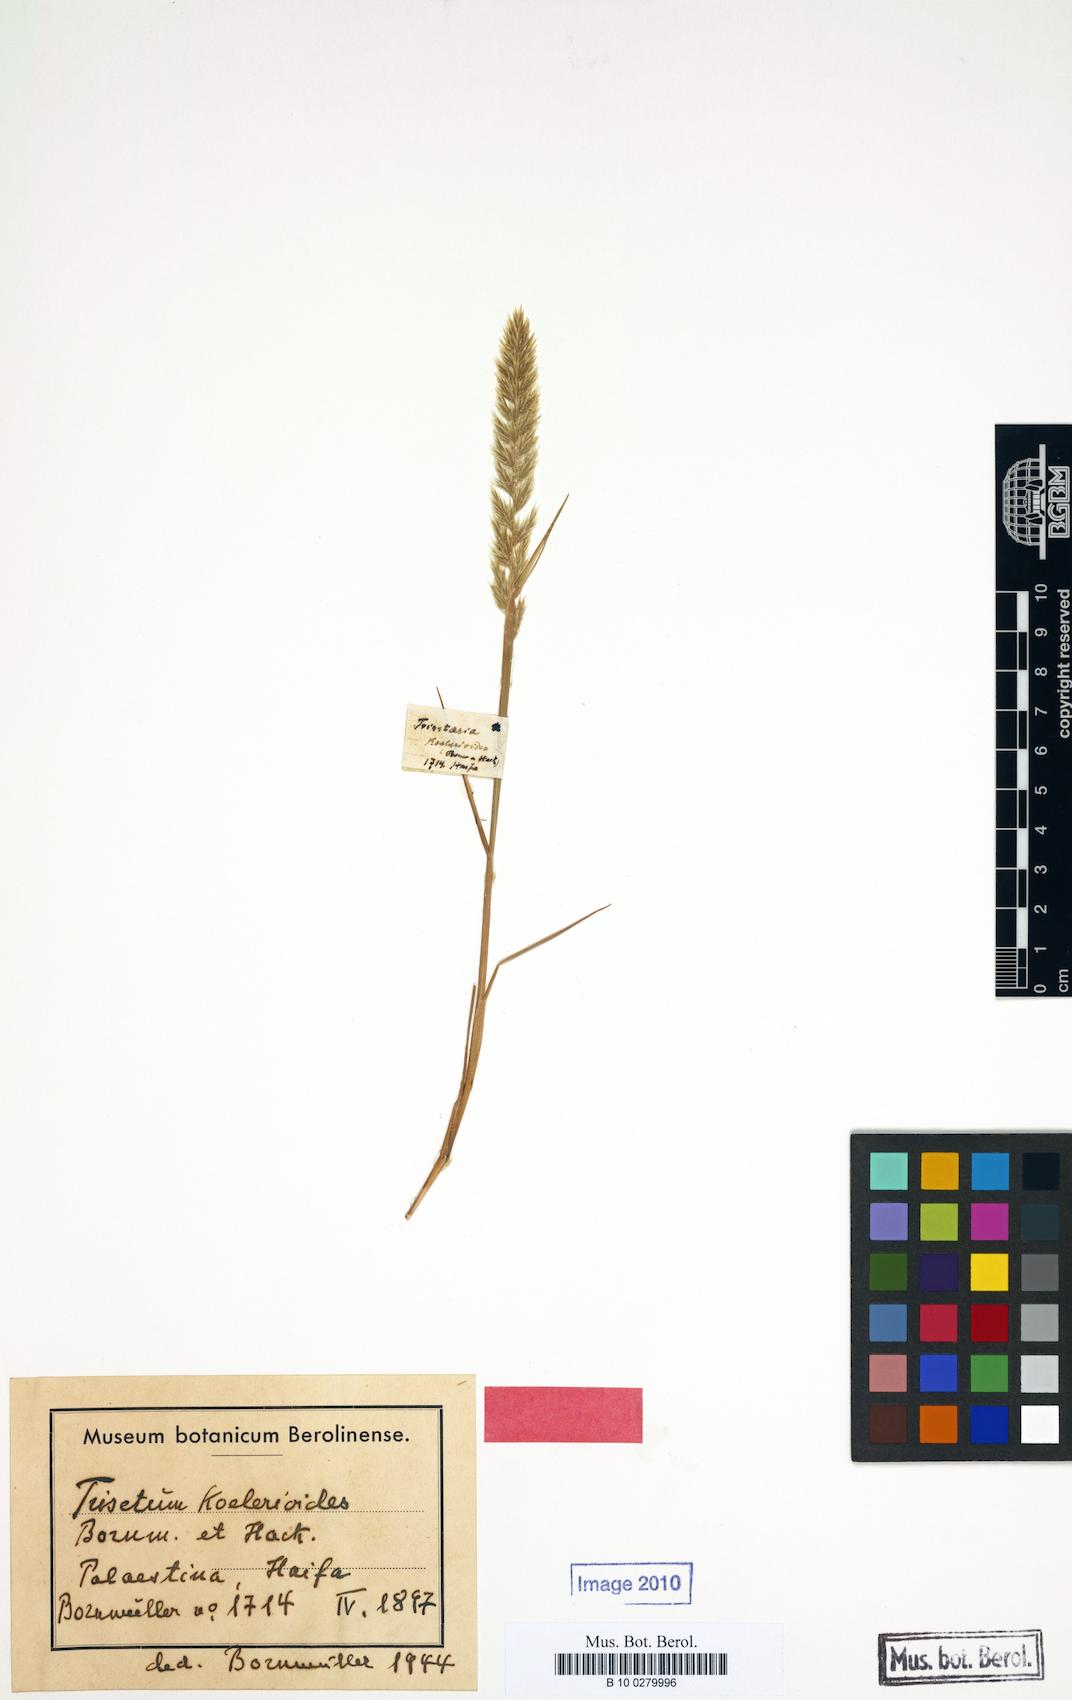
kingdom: Plantae
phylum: Tracheophyta
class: Liliopsida
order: Poales
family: Poaceae
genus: Trisetaria
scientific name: Trisetaria koelerioides
